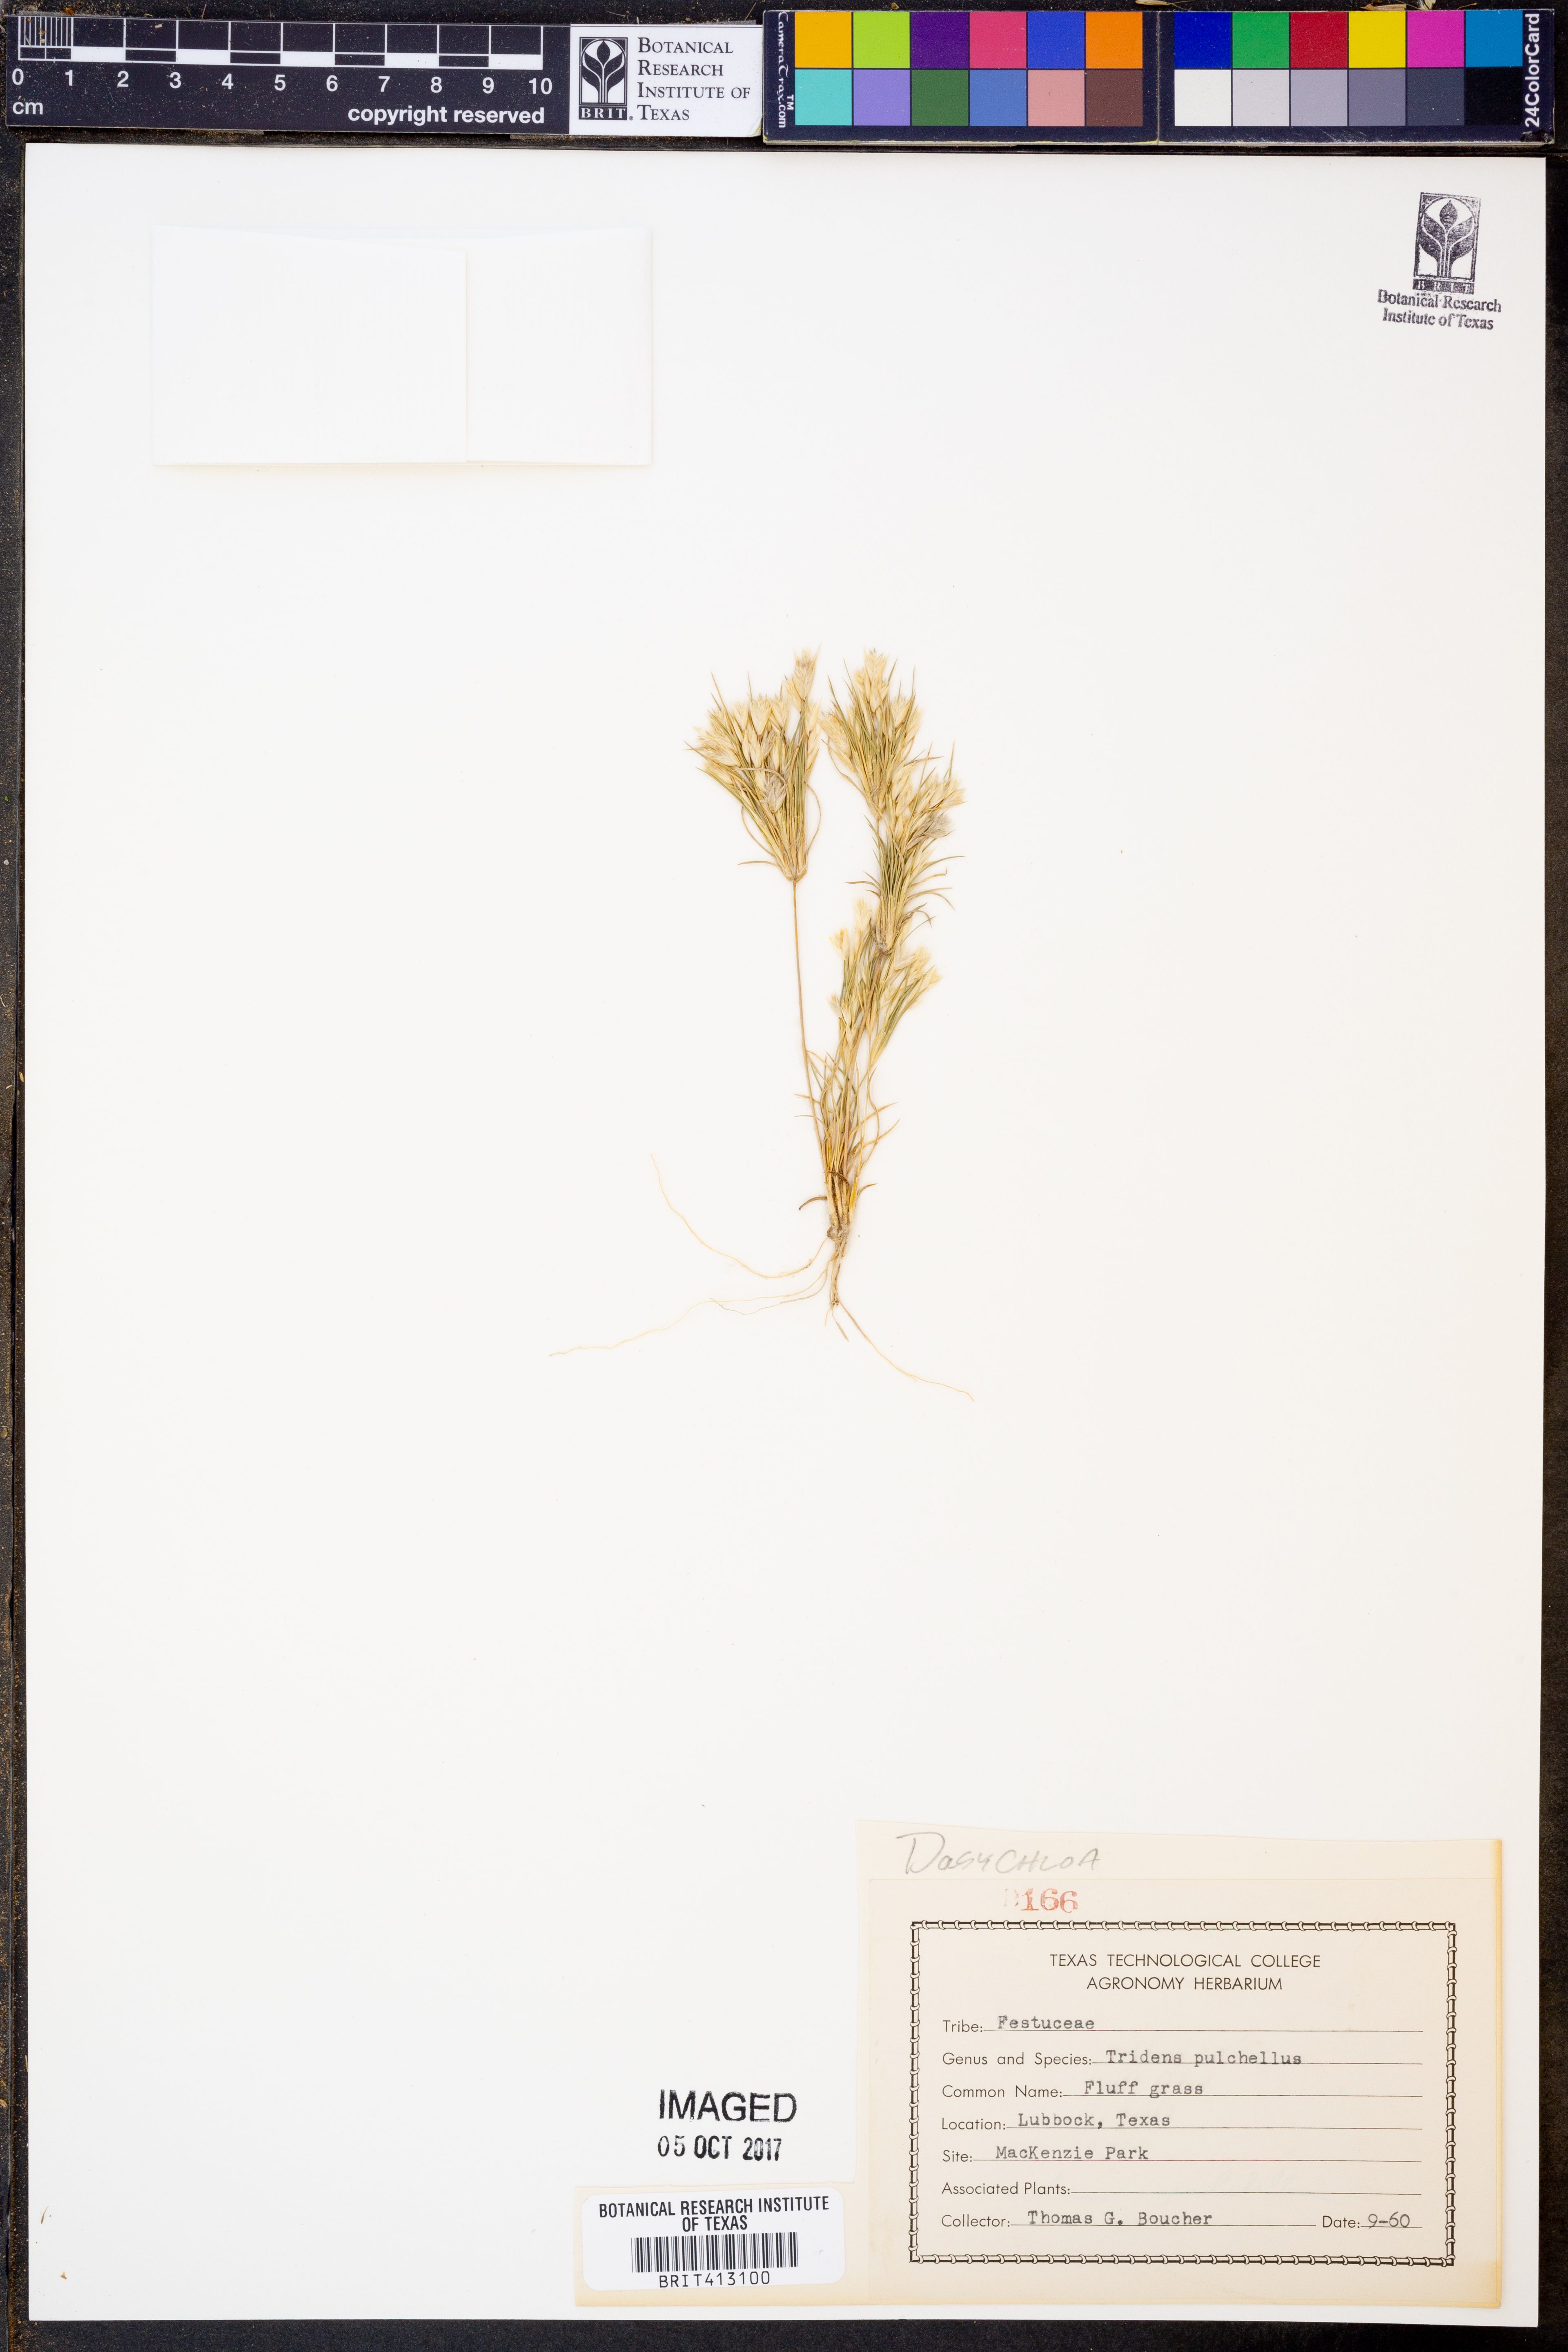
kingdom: Plantae
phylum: Tracheophyta
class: Liliopsida
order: Poales
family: Poaceae
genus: Munroa
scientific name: Munroa pulchella
